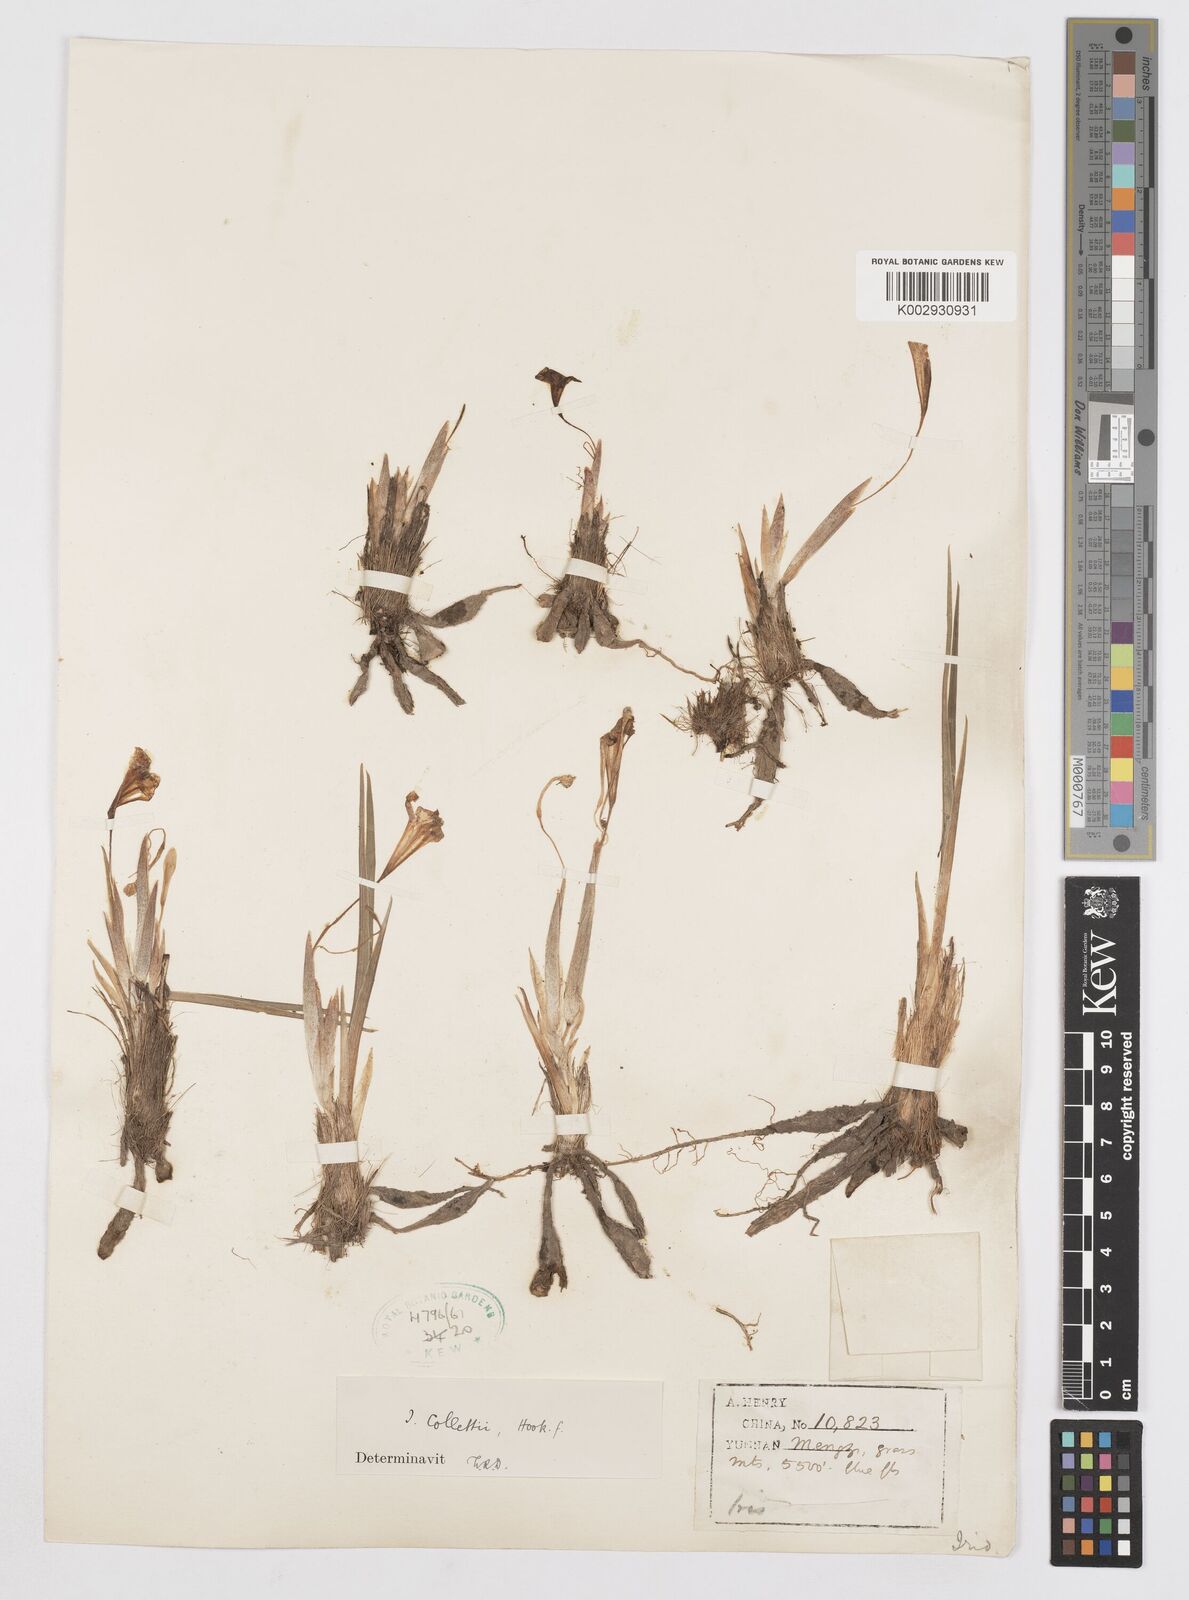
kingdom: Plantae
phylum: Tracheophyta
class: Liliopsida
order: Asparagales
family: Iridaceae
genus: Iris
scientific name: Iris collettii
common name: Plateau iris
